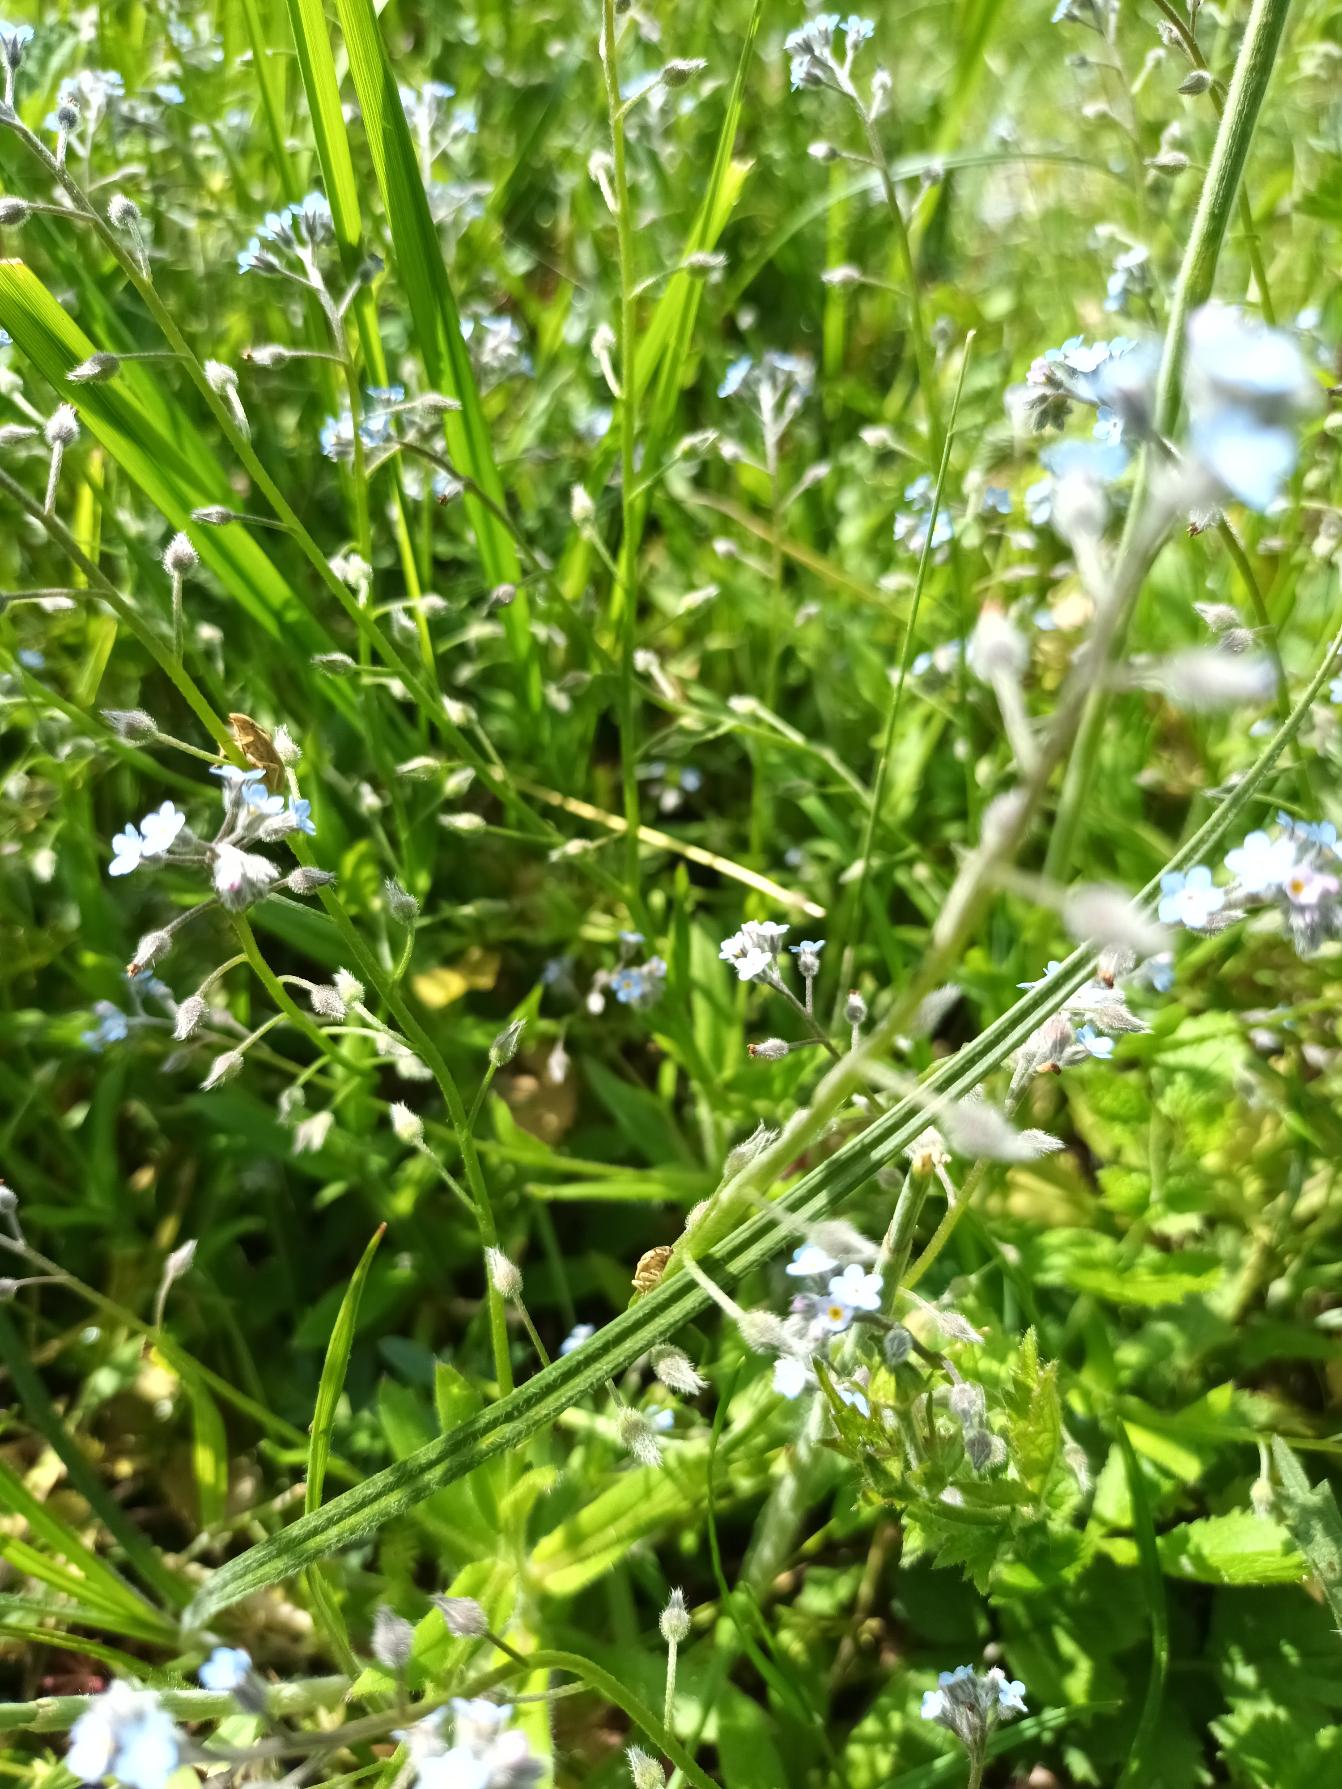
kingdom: Plantae
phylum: Tracheophyta
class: Magnoliopsida
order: Boraginales
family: Boraginaceae
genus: Myosotis
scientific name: Myosotis arvensis
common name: Mark-forglemmigej
